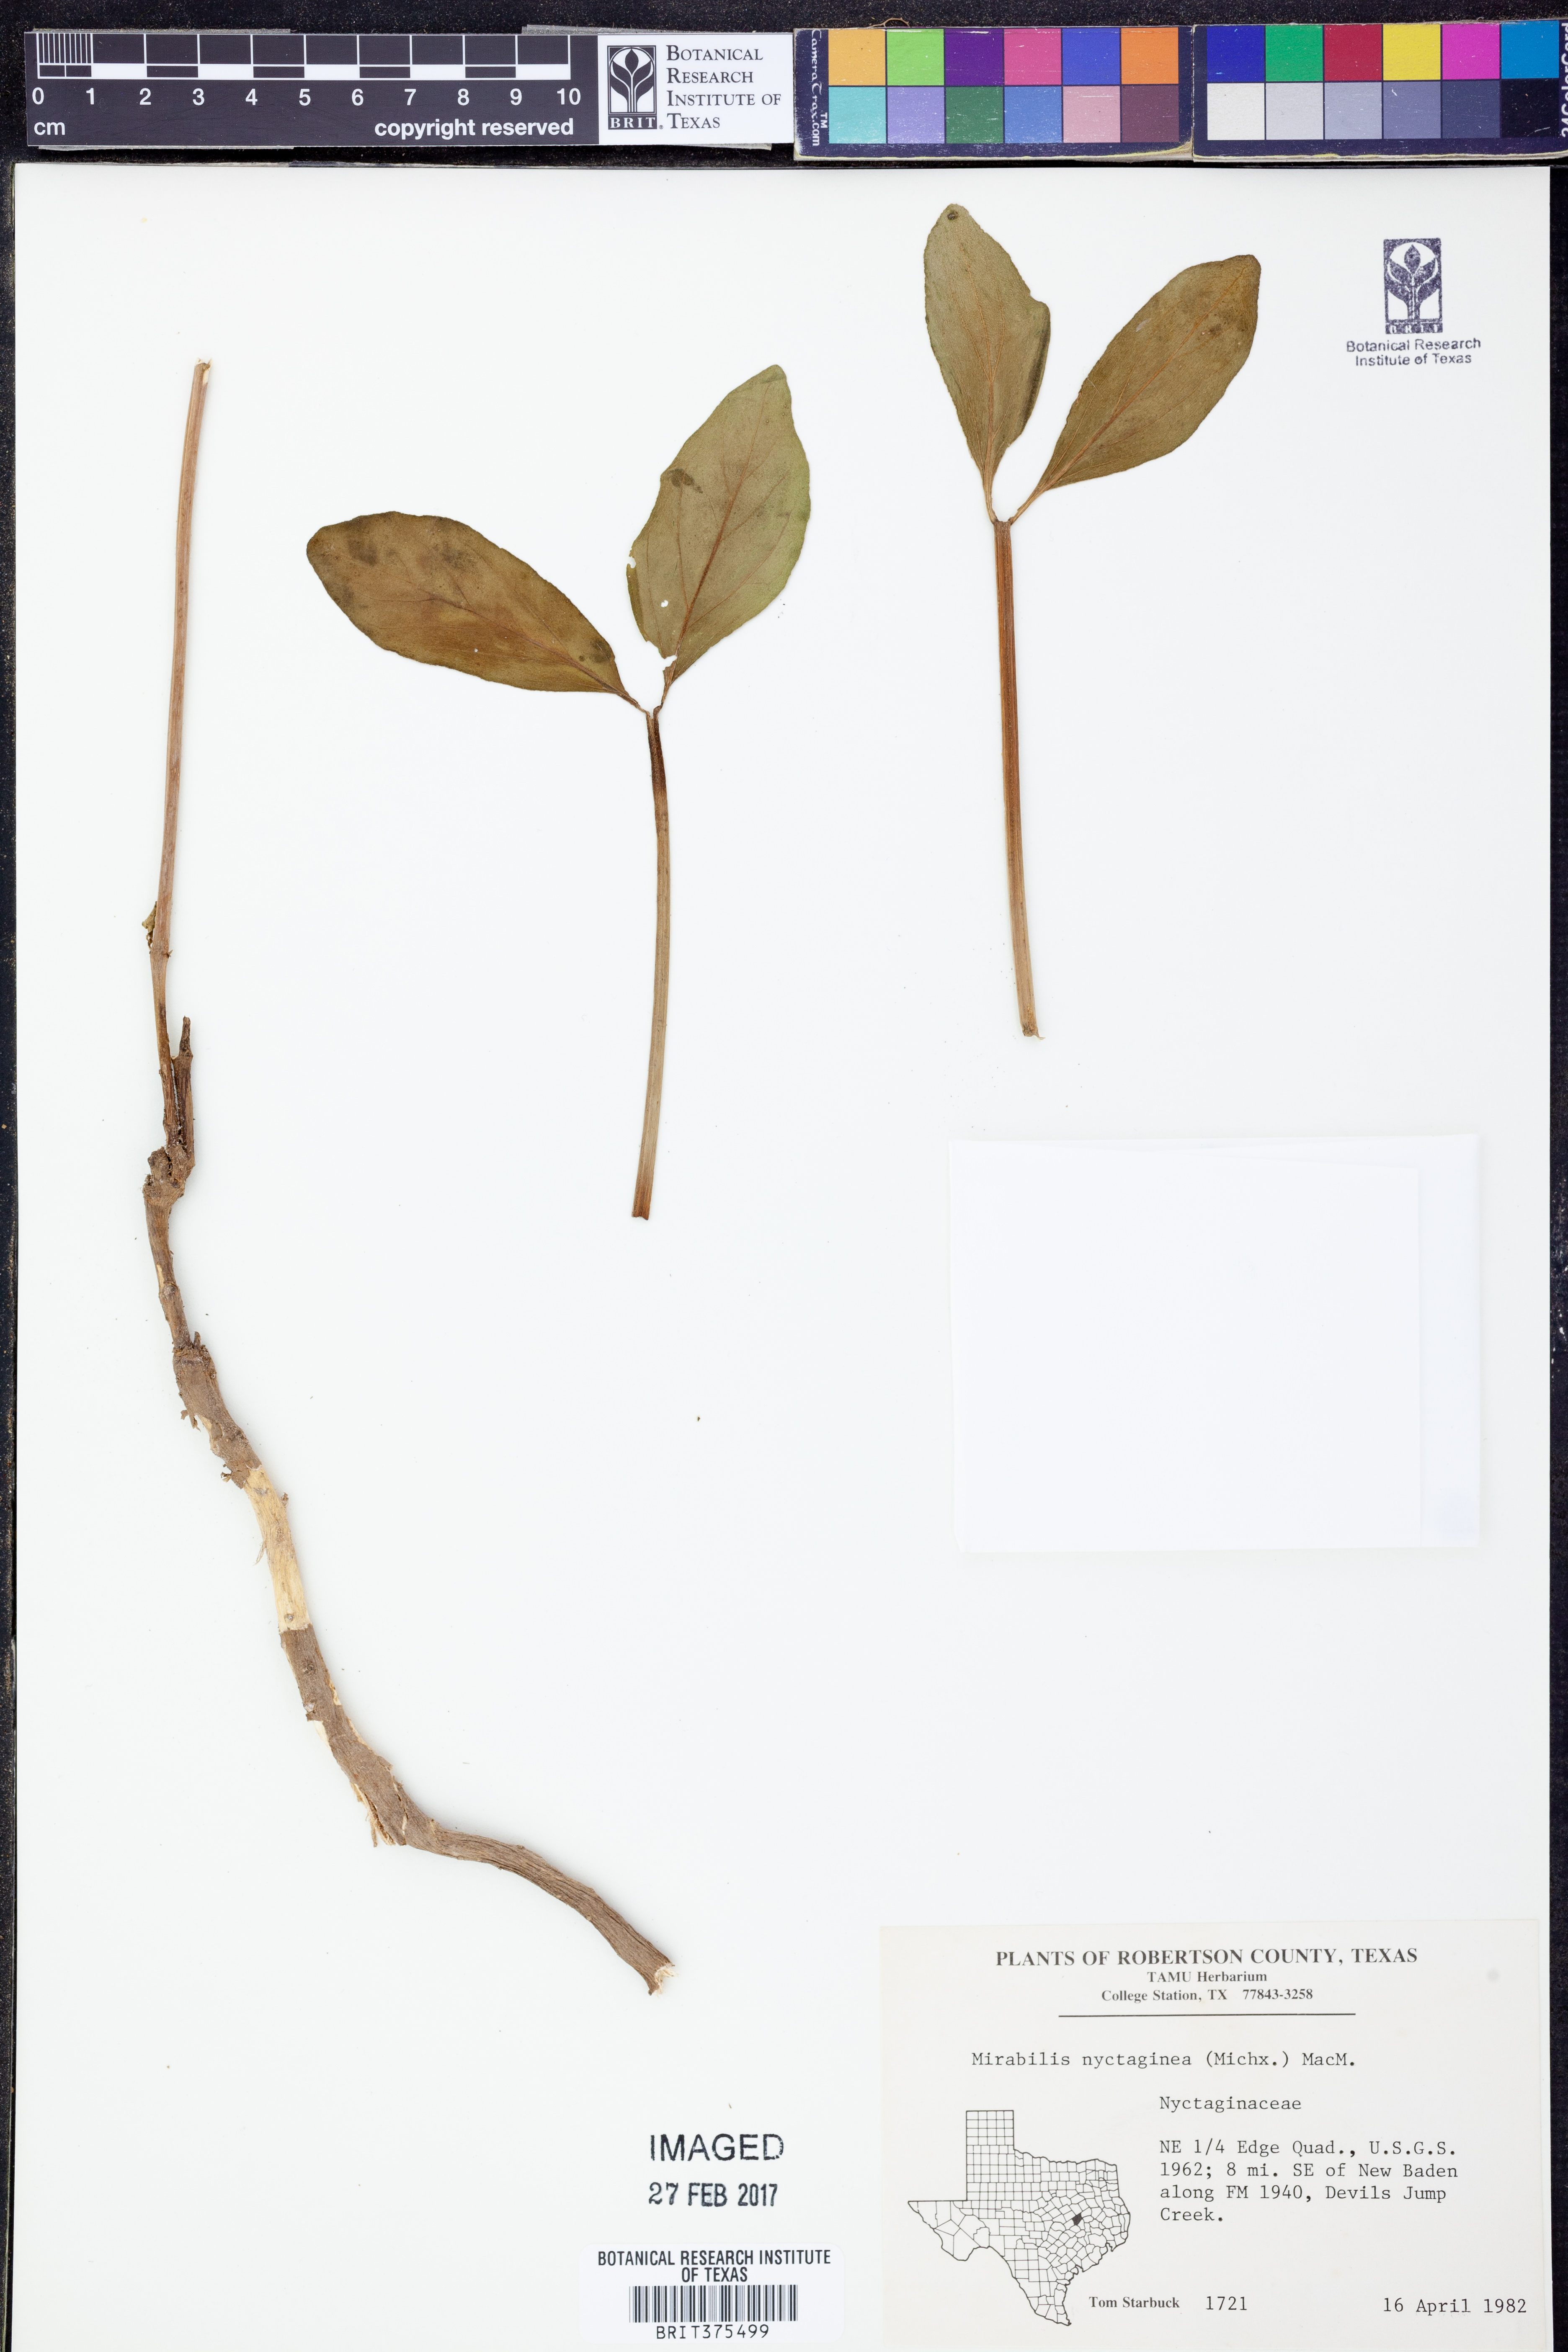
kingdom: Plantae
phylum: Tracheophyta
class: Magnoliopsida
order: Caryophyllales
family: Nyctaginaceae
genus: Mirabilis
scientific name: Mirabilis nyctaginea
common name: Umbrella wort
